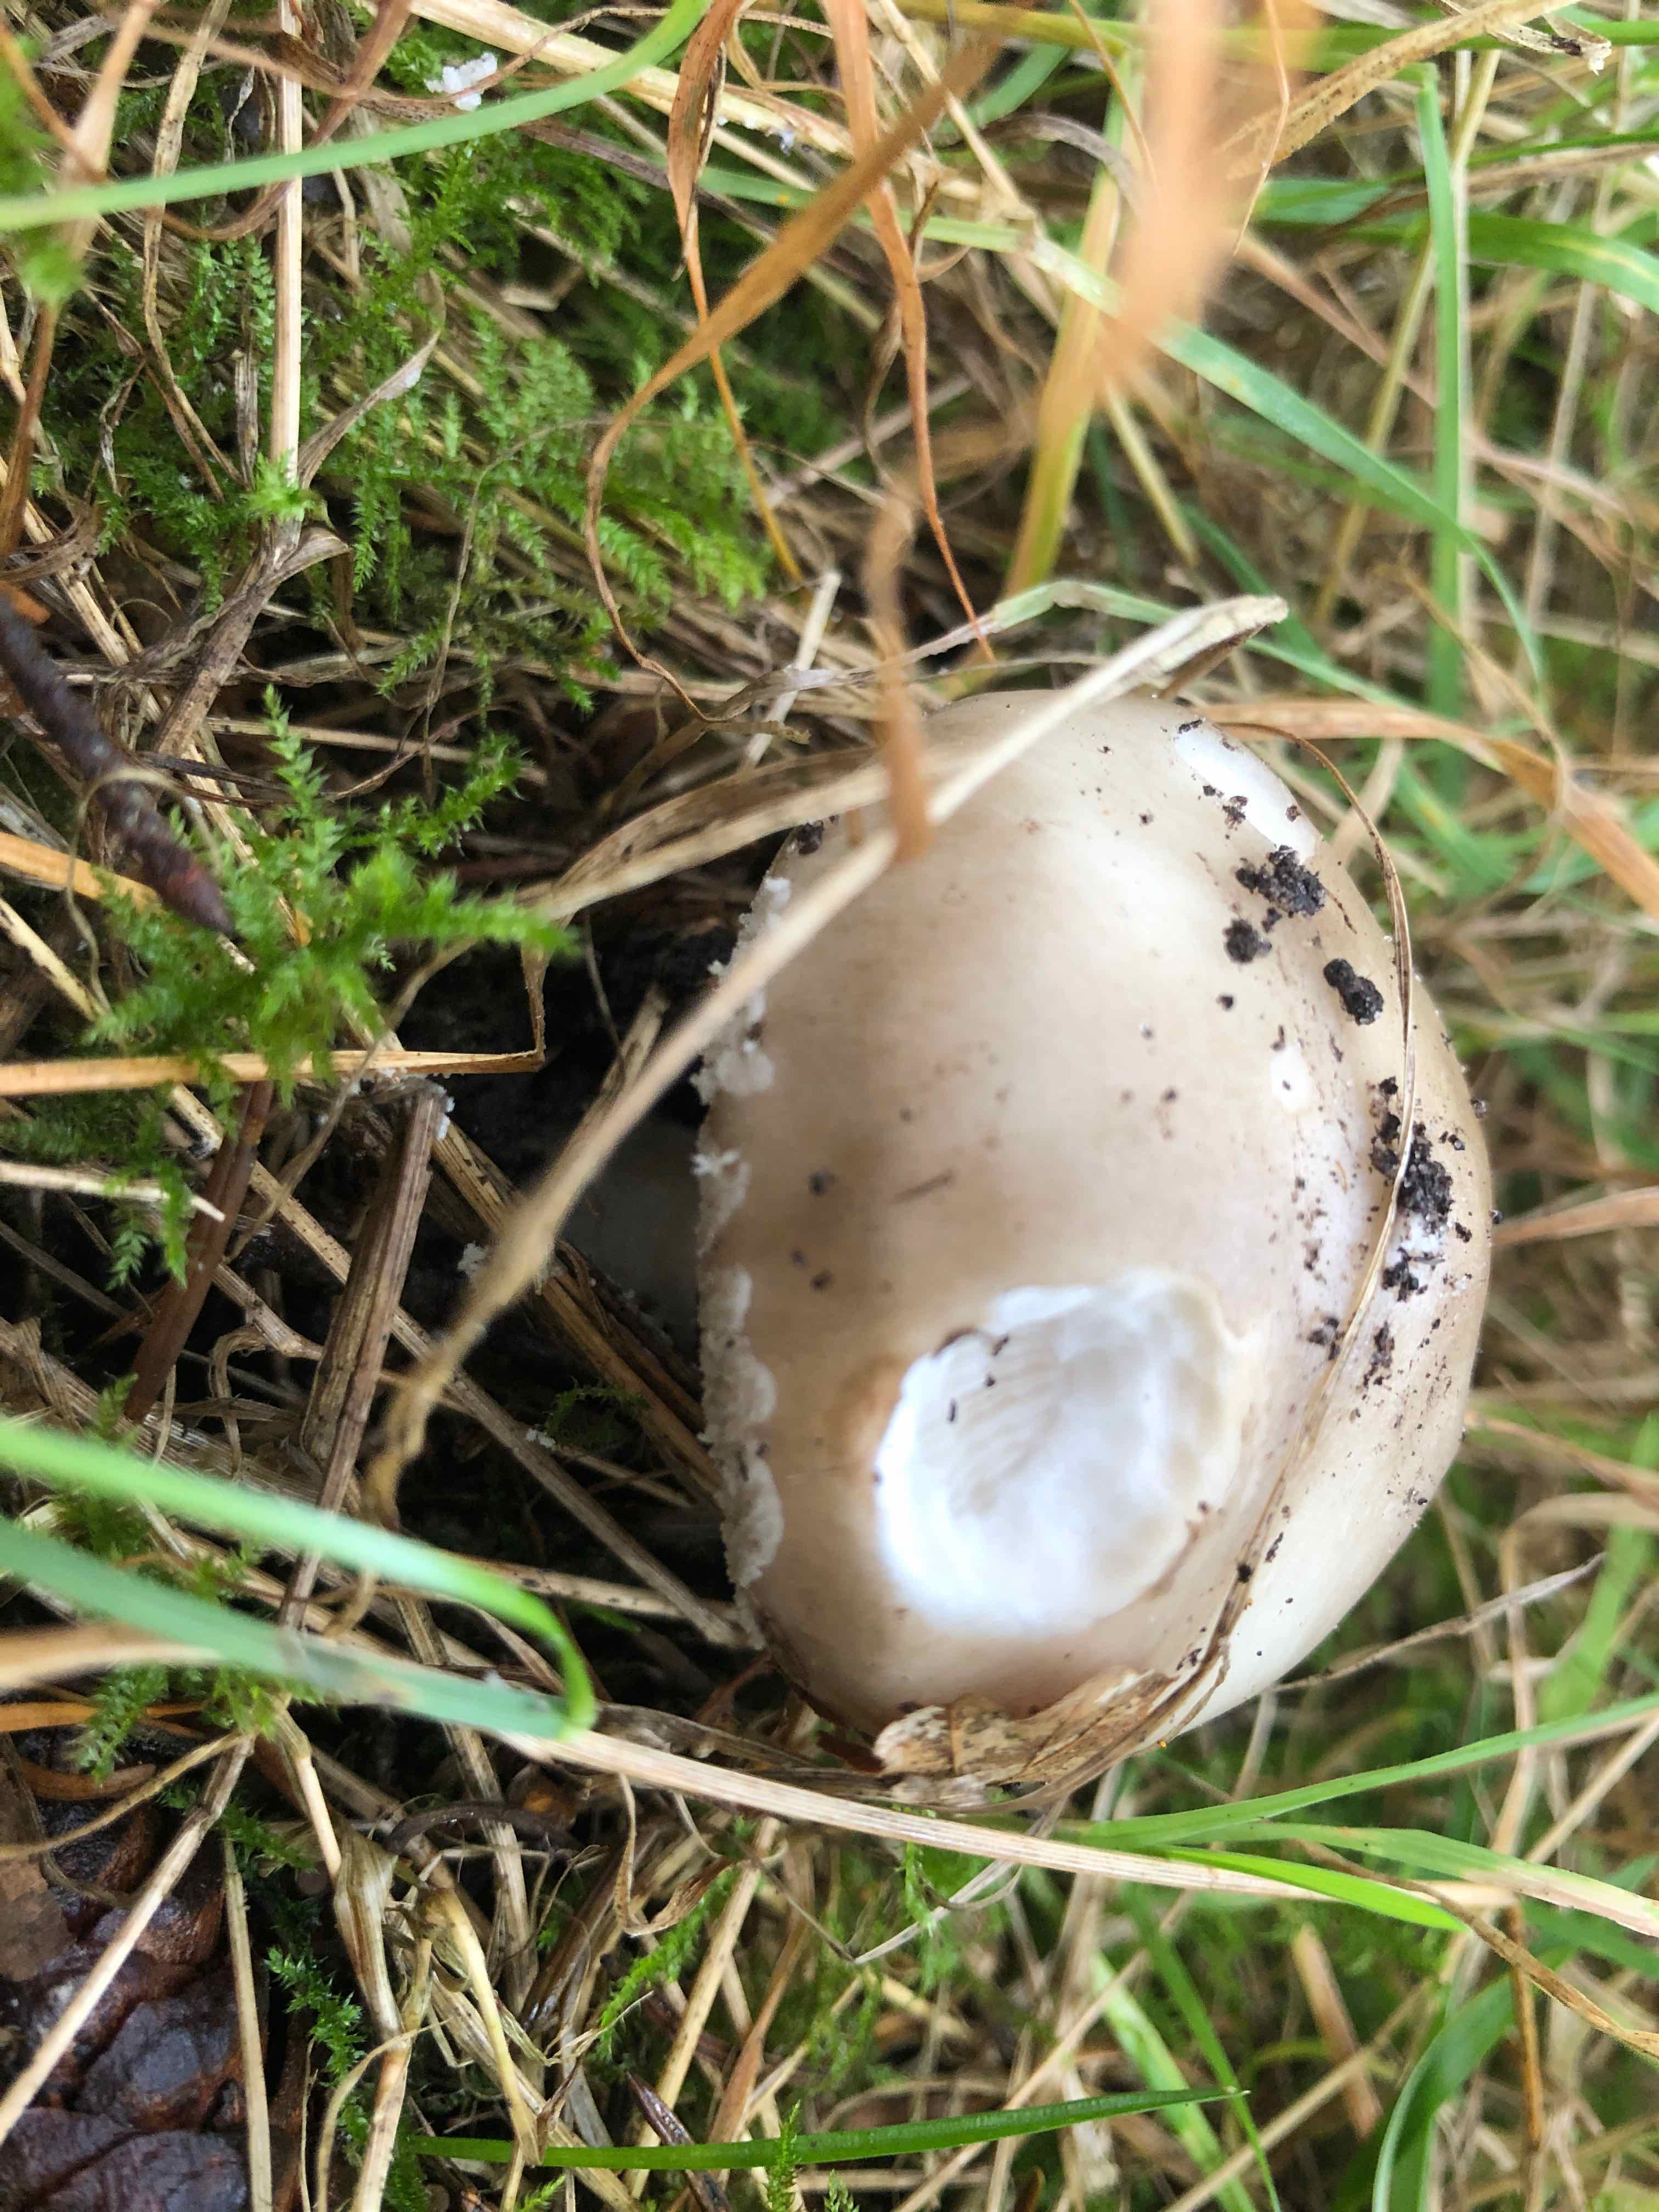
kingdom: Fungi
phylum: Basidiomycota
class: Agaricomycetes
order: Agaricales
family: Amanitaceae
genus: Amanita
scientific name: Amanita
